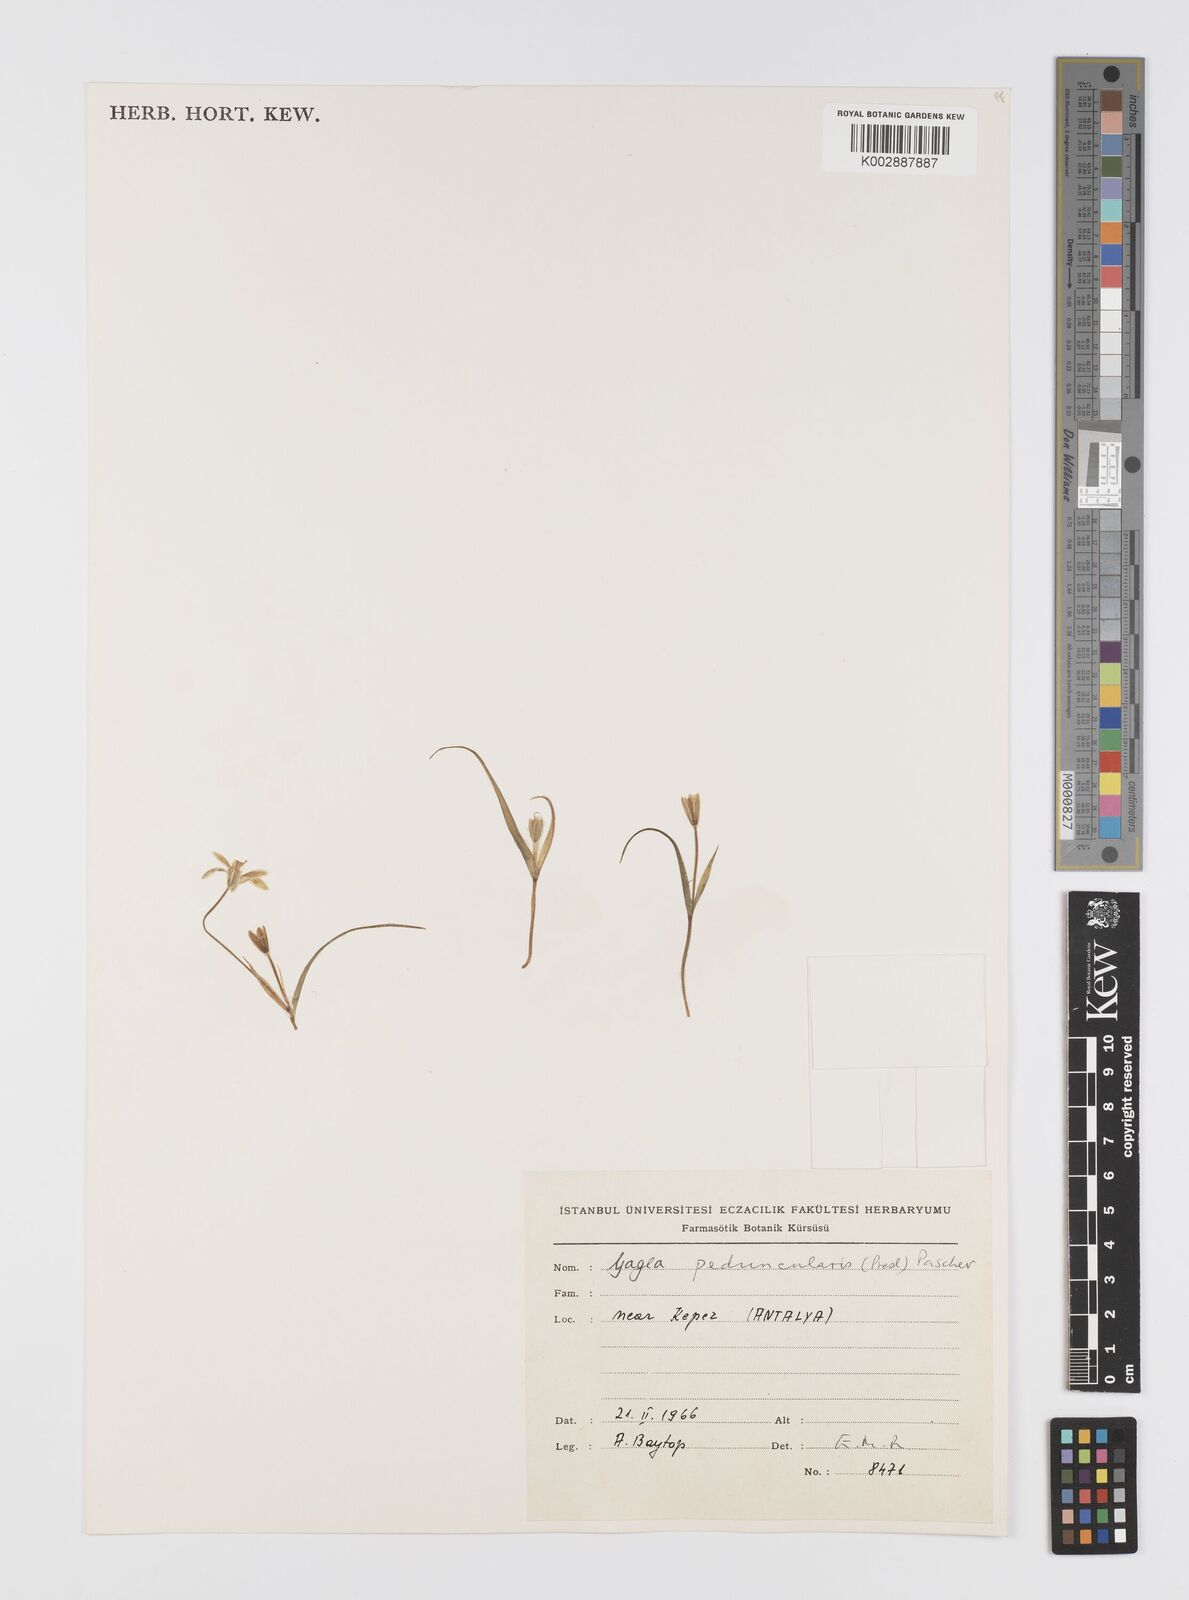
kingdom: Plantae
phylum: Tracheophyta
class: Liliopsida
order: Liliales
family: Liliaceae
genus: Gagea
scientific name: Gagea peduncularis
